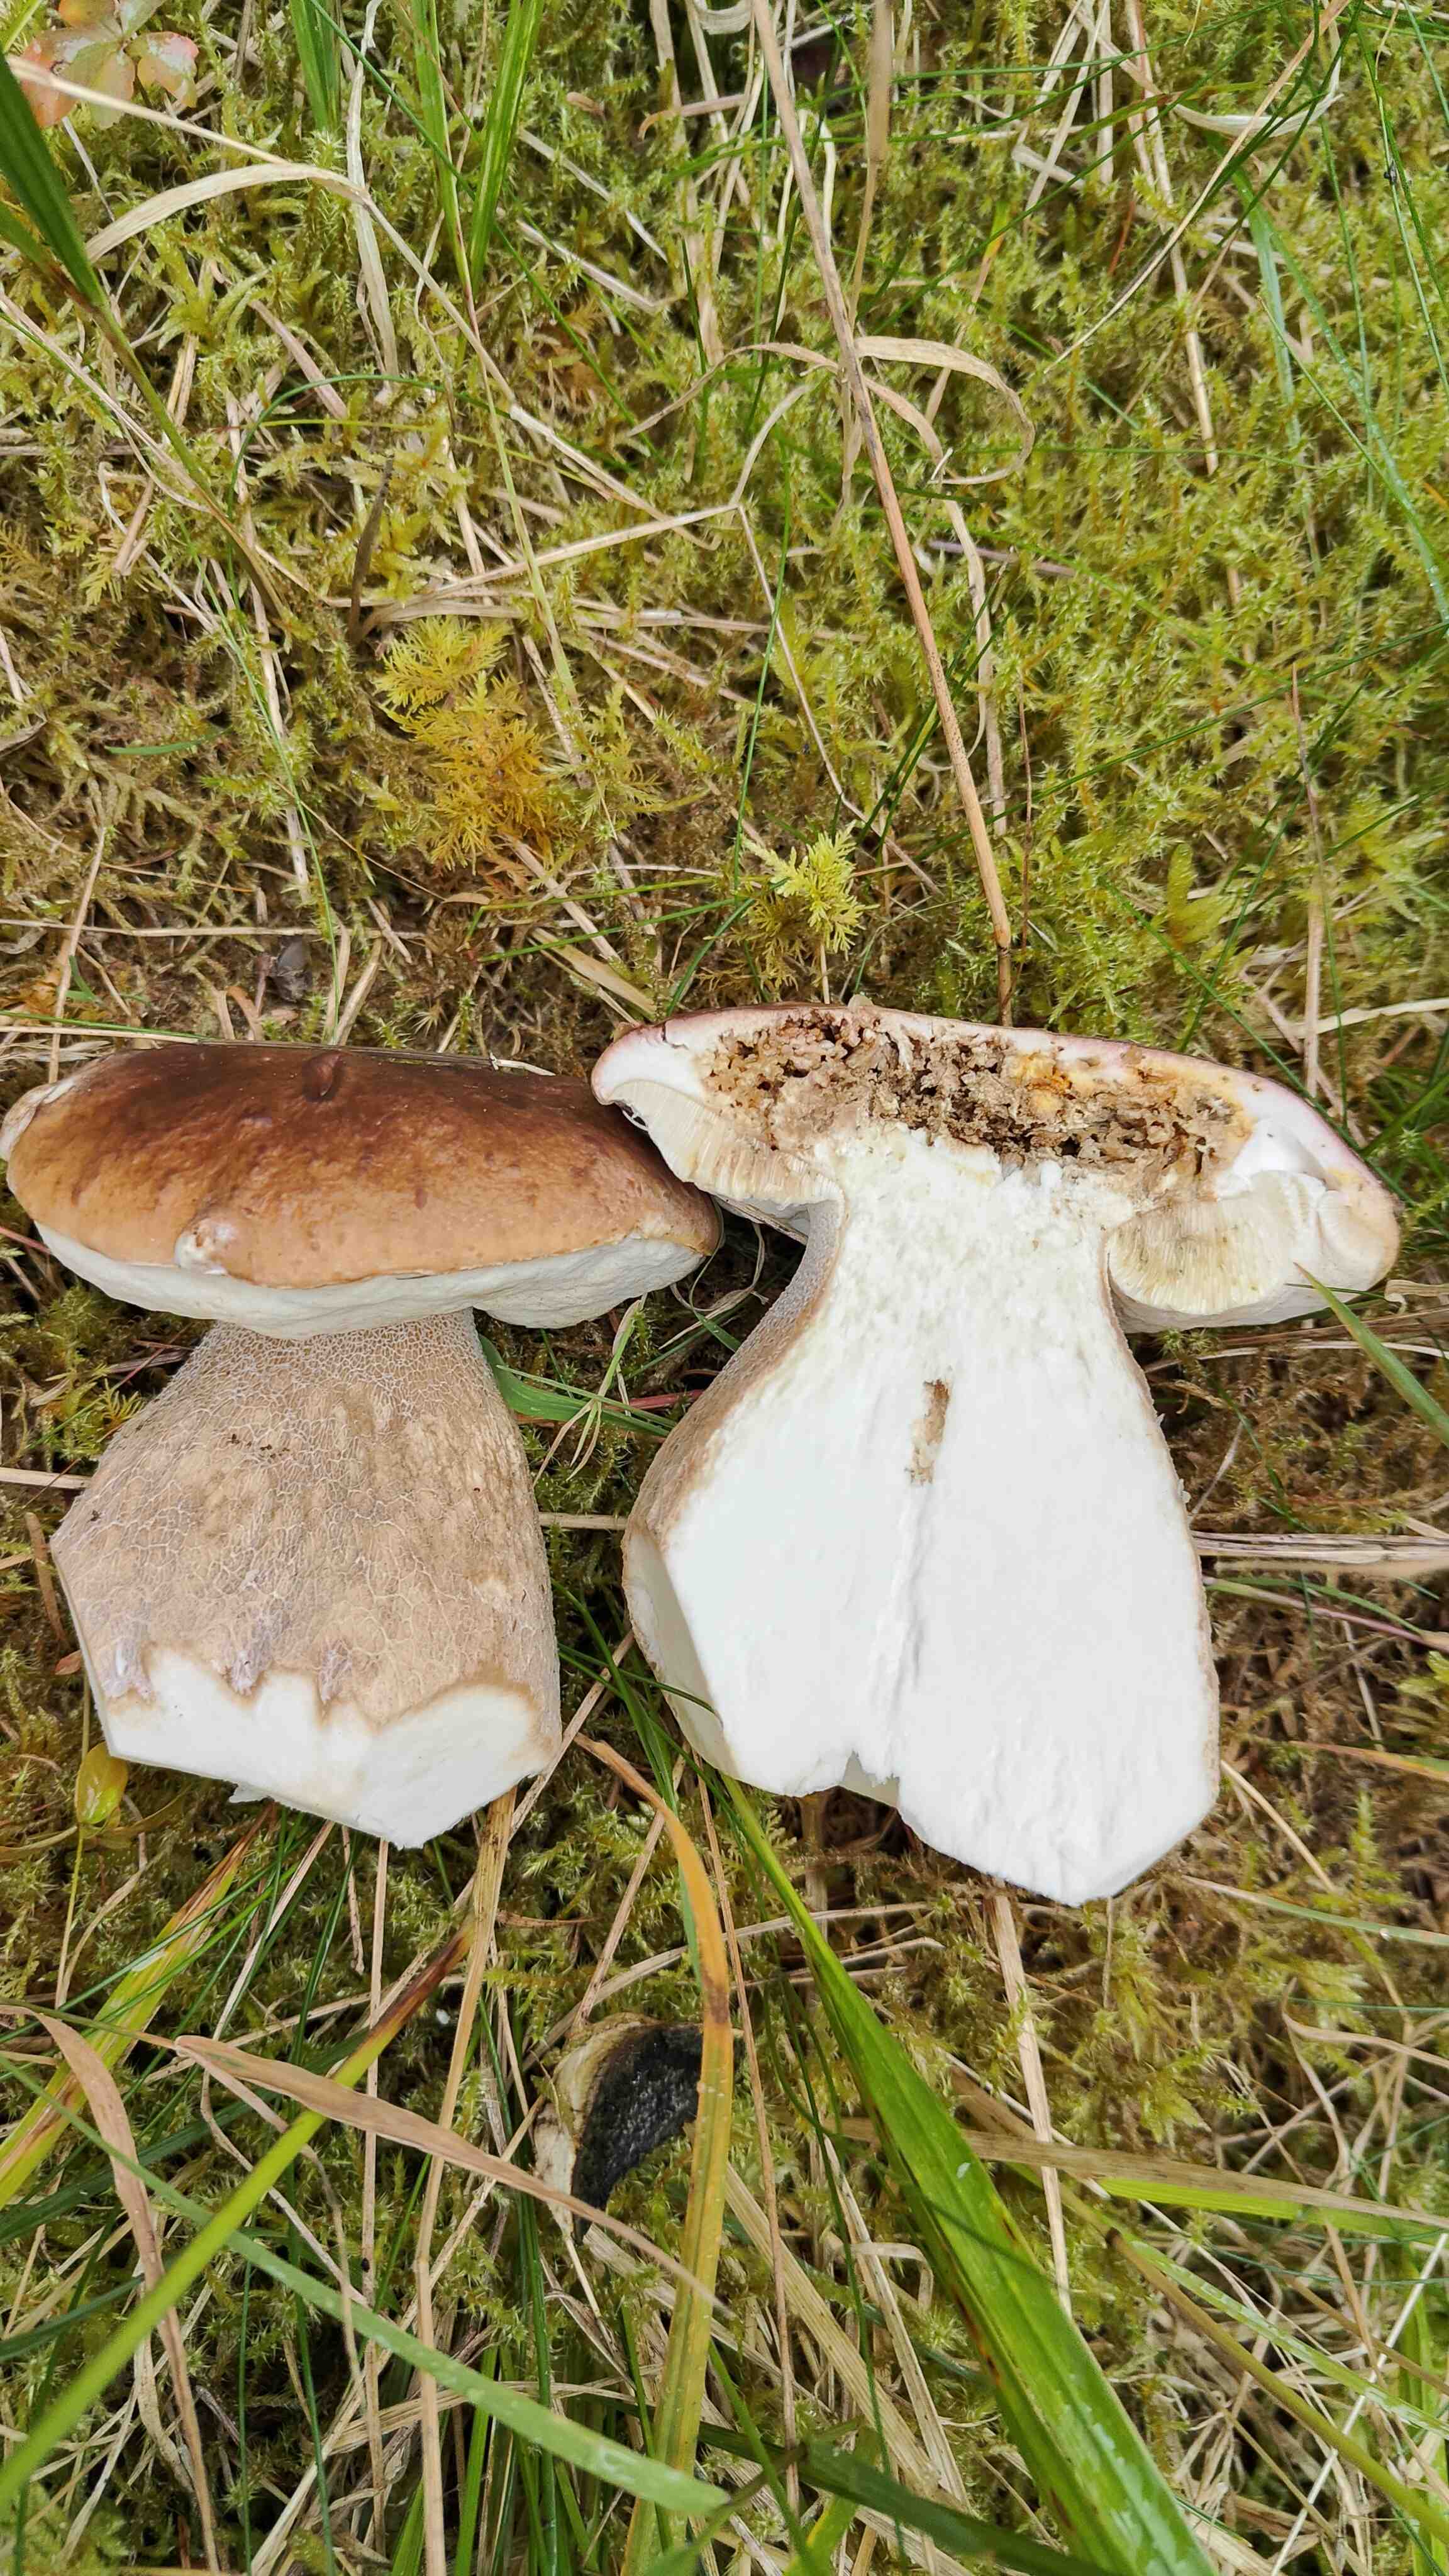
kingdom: Fungi
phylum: Basidiomycota
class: Agaricomycetes
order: Boletales
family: Boletaceae
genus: Boletus
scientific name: Boletus edulis
